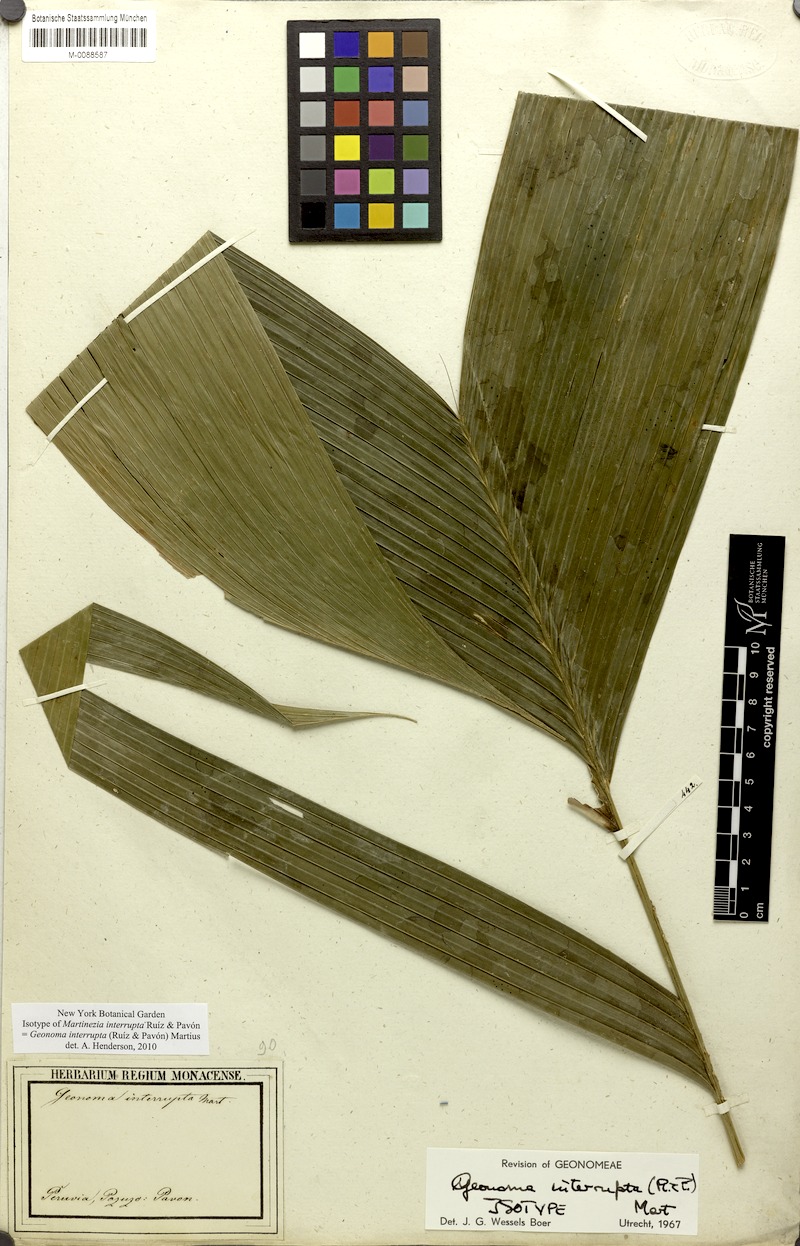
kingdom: Plantae
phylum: Tracheophyta
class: Liliopsida
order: Arecales
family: Arecaceae
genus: Geonoma
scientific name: Geonoma interrupta
